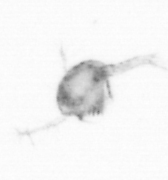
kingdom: Animalia
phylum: Arthropoda
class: Copepoda
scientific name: Copepoda
